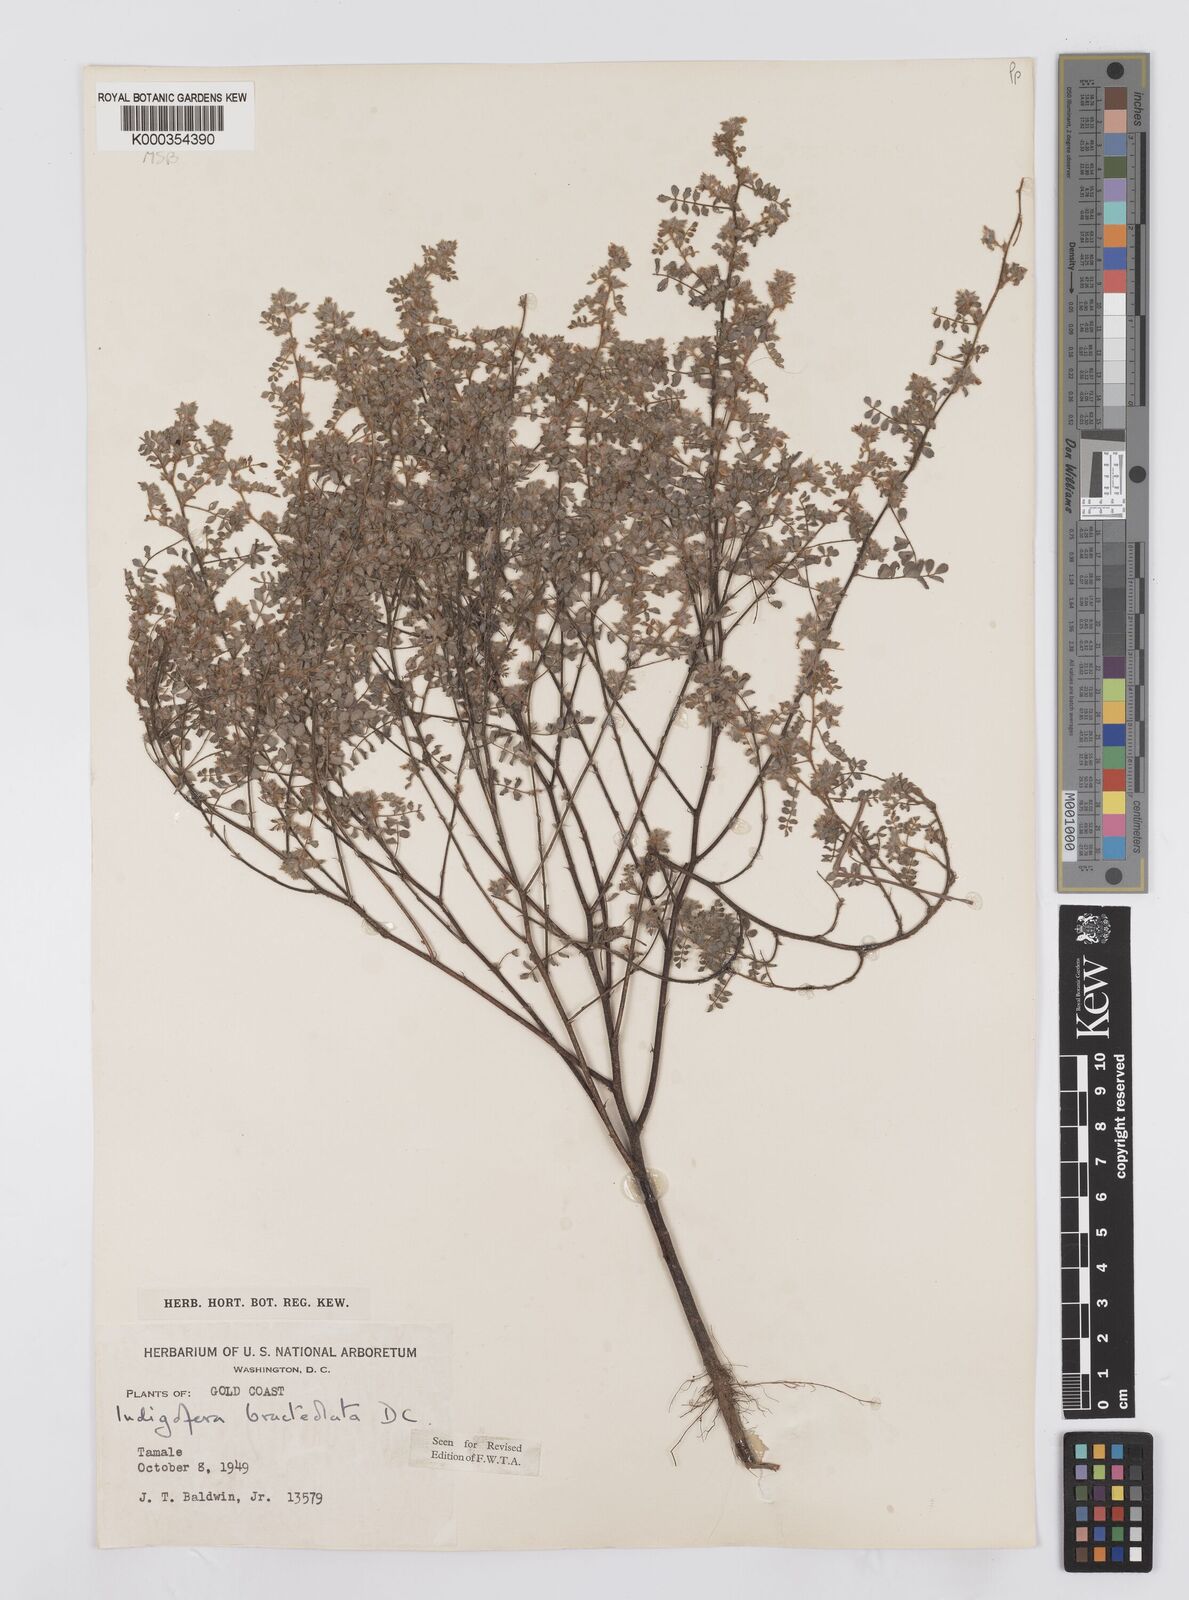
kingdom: Plantae
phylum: Tracheophyta
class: Magnoliopsida
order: Fabales
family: Fabaceae
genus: Indigofera
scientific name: Indigofera bracteolata
